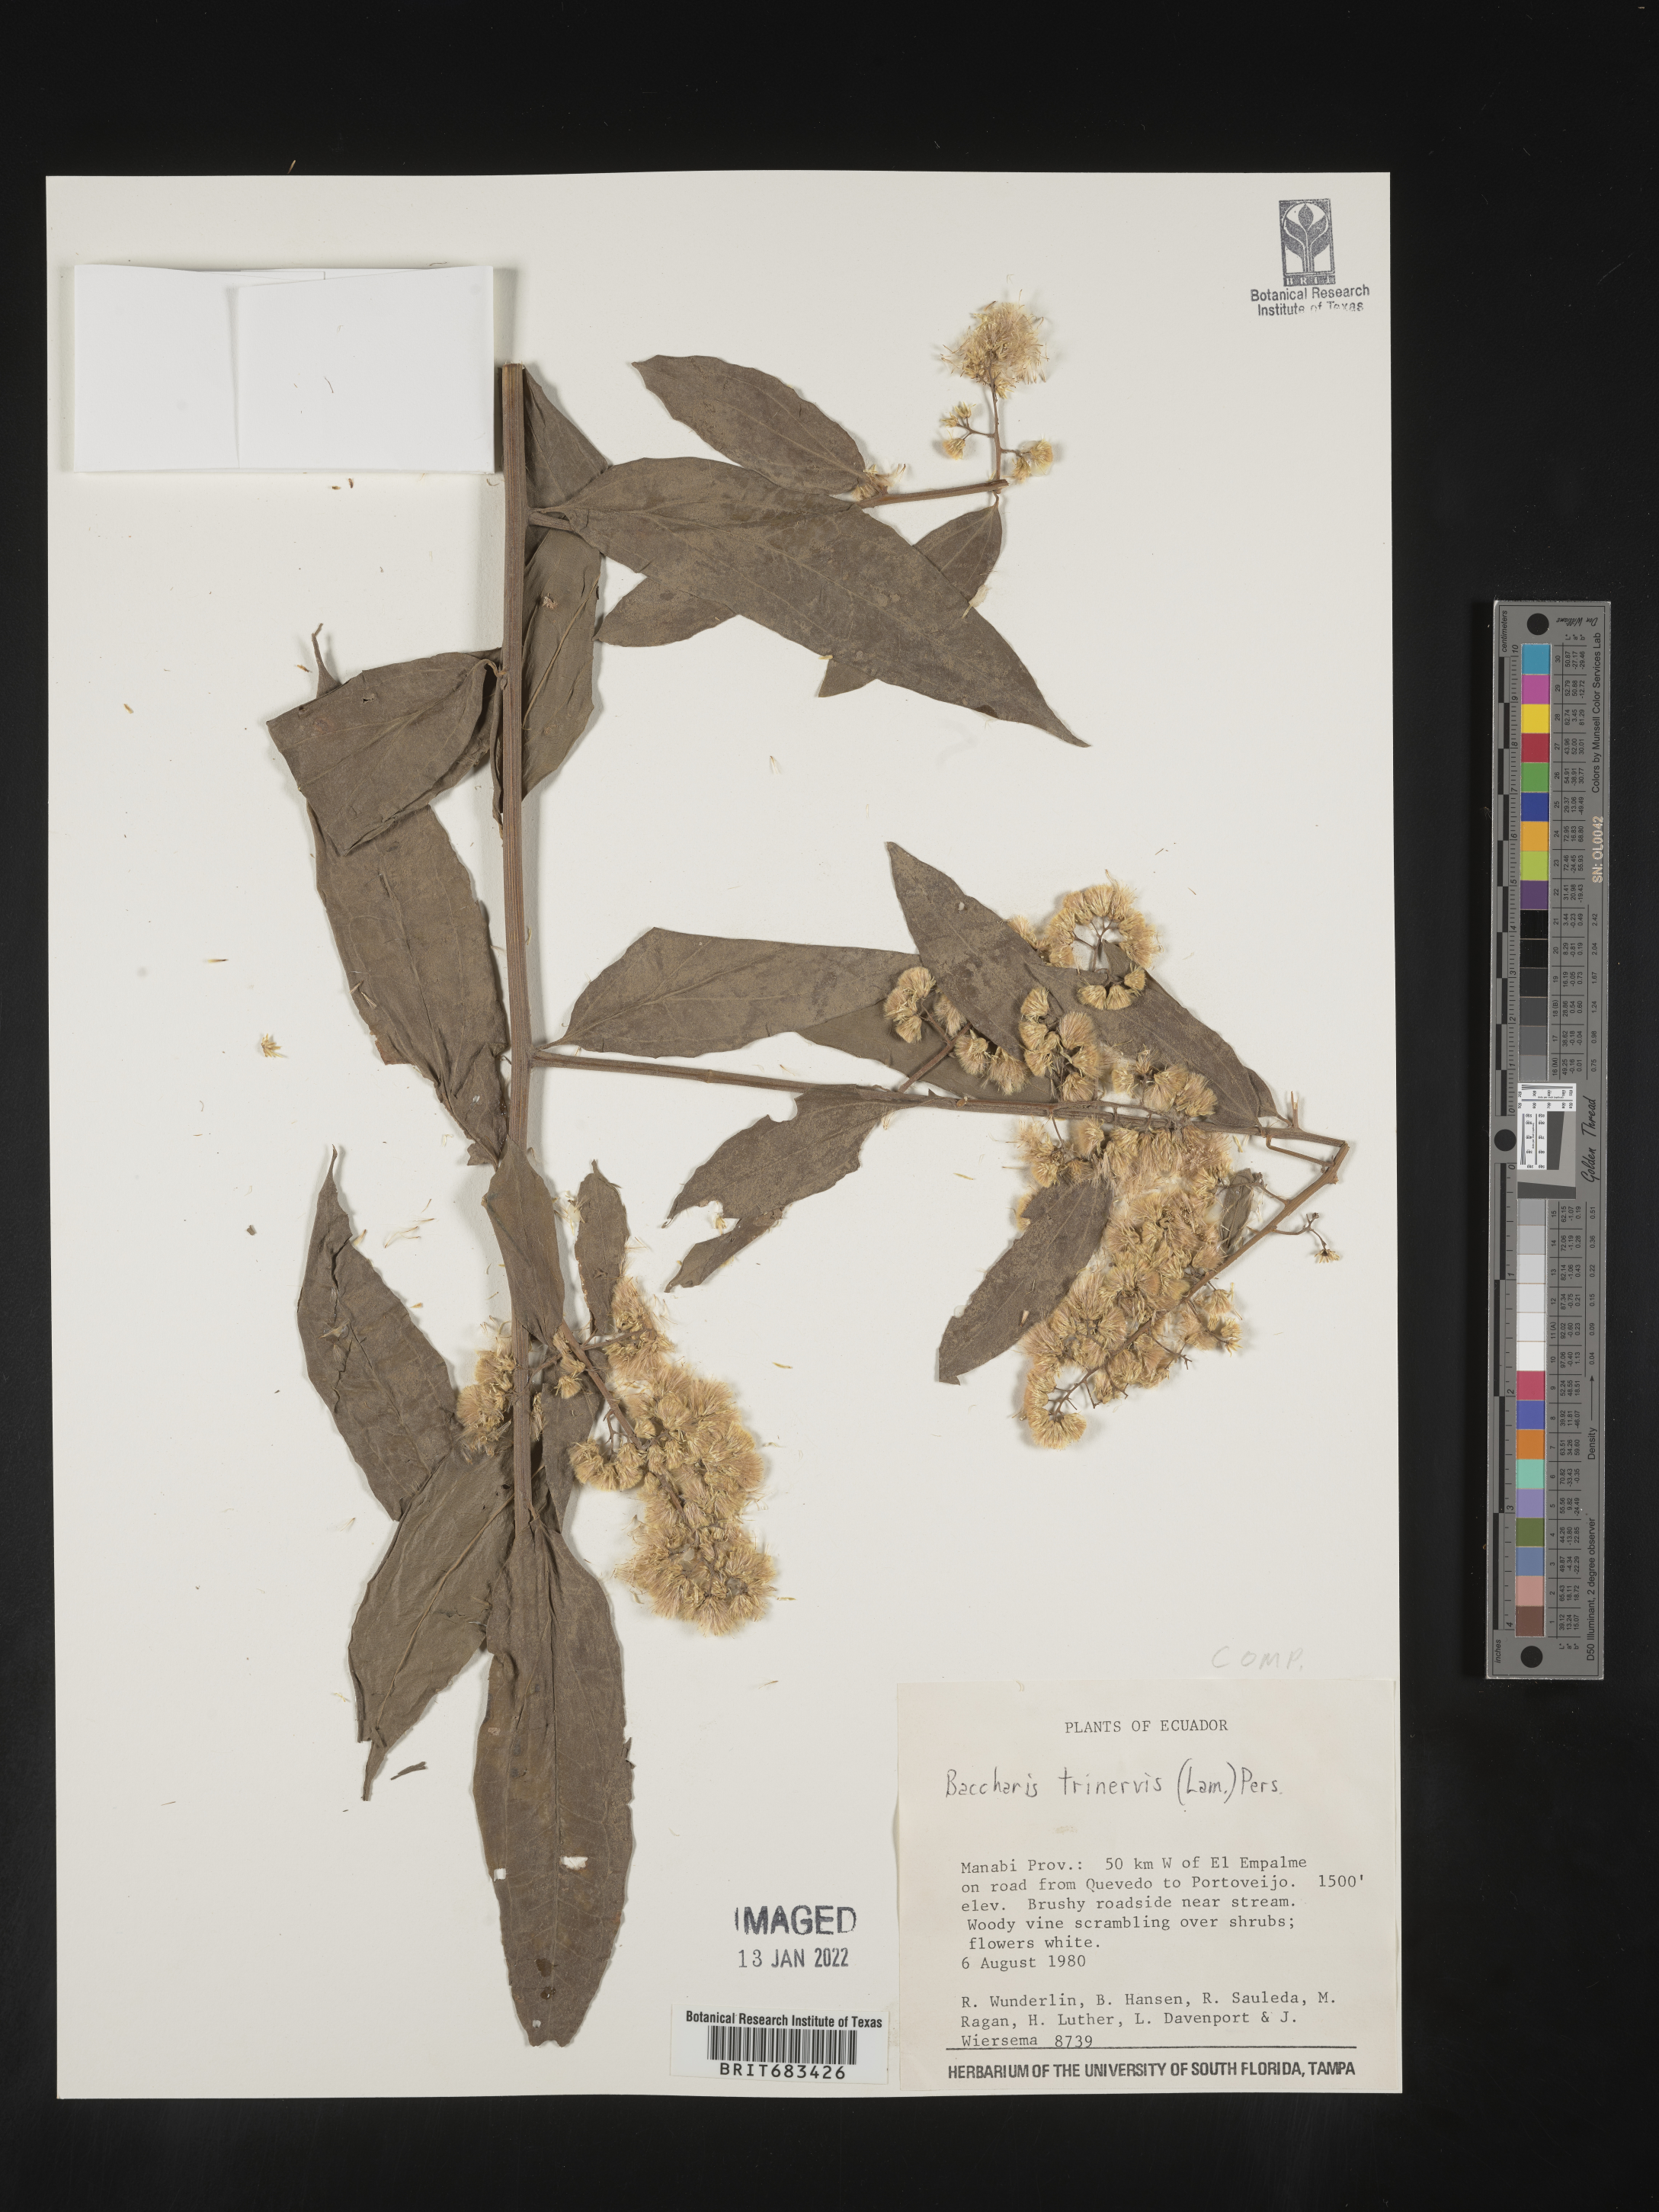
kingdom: Plantae
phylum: Tracheophyta
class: Magnoliopsida
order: Asterales
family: Asteraceae
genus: Baccharis
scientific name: Baccharis trinervis
